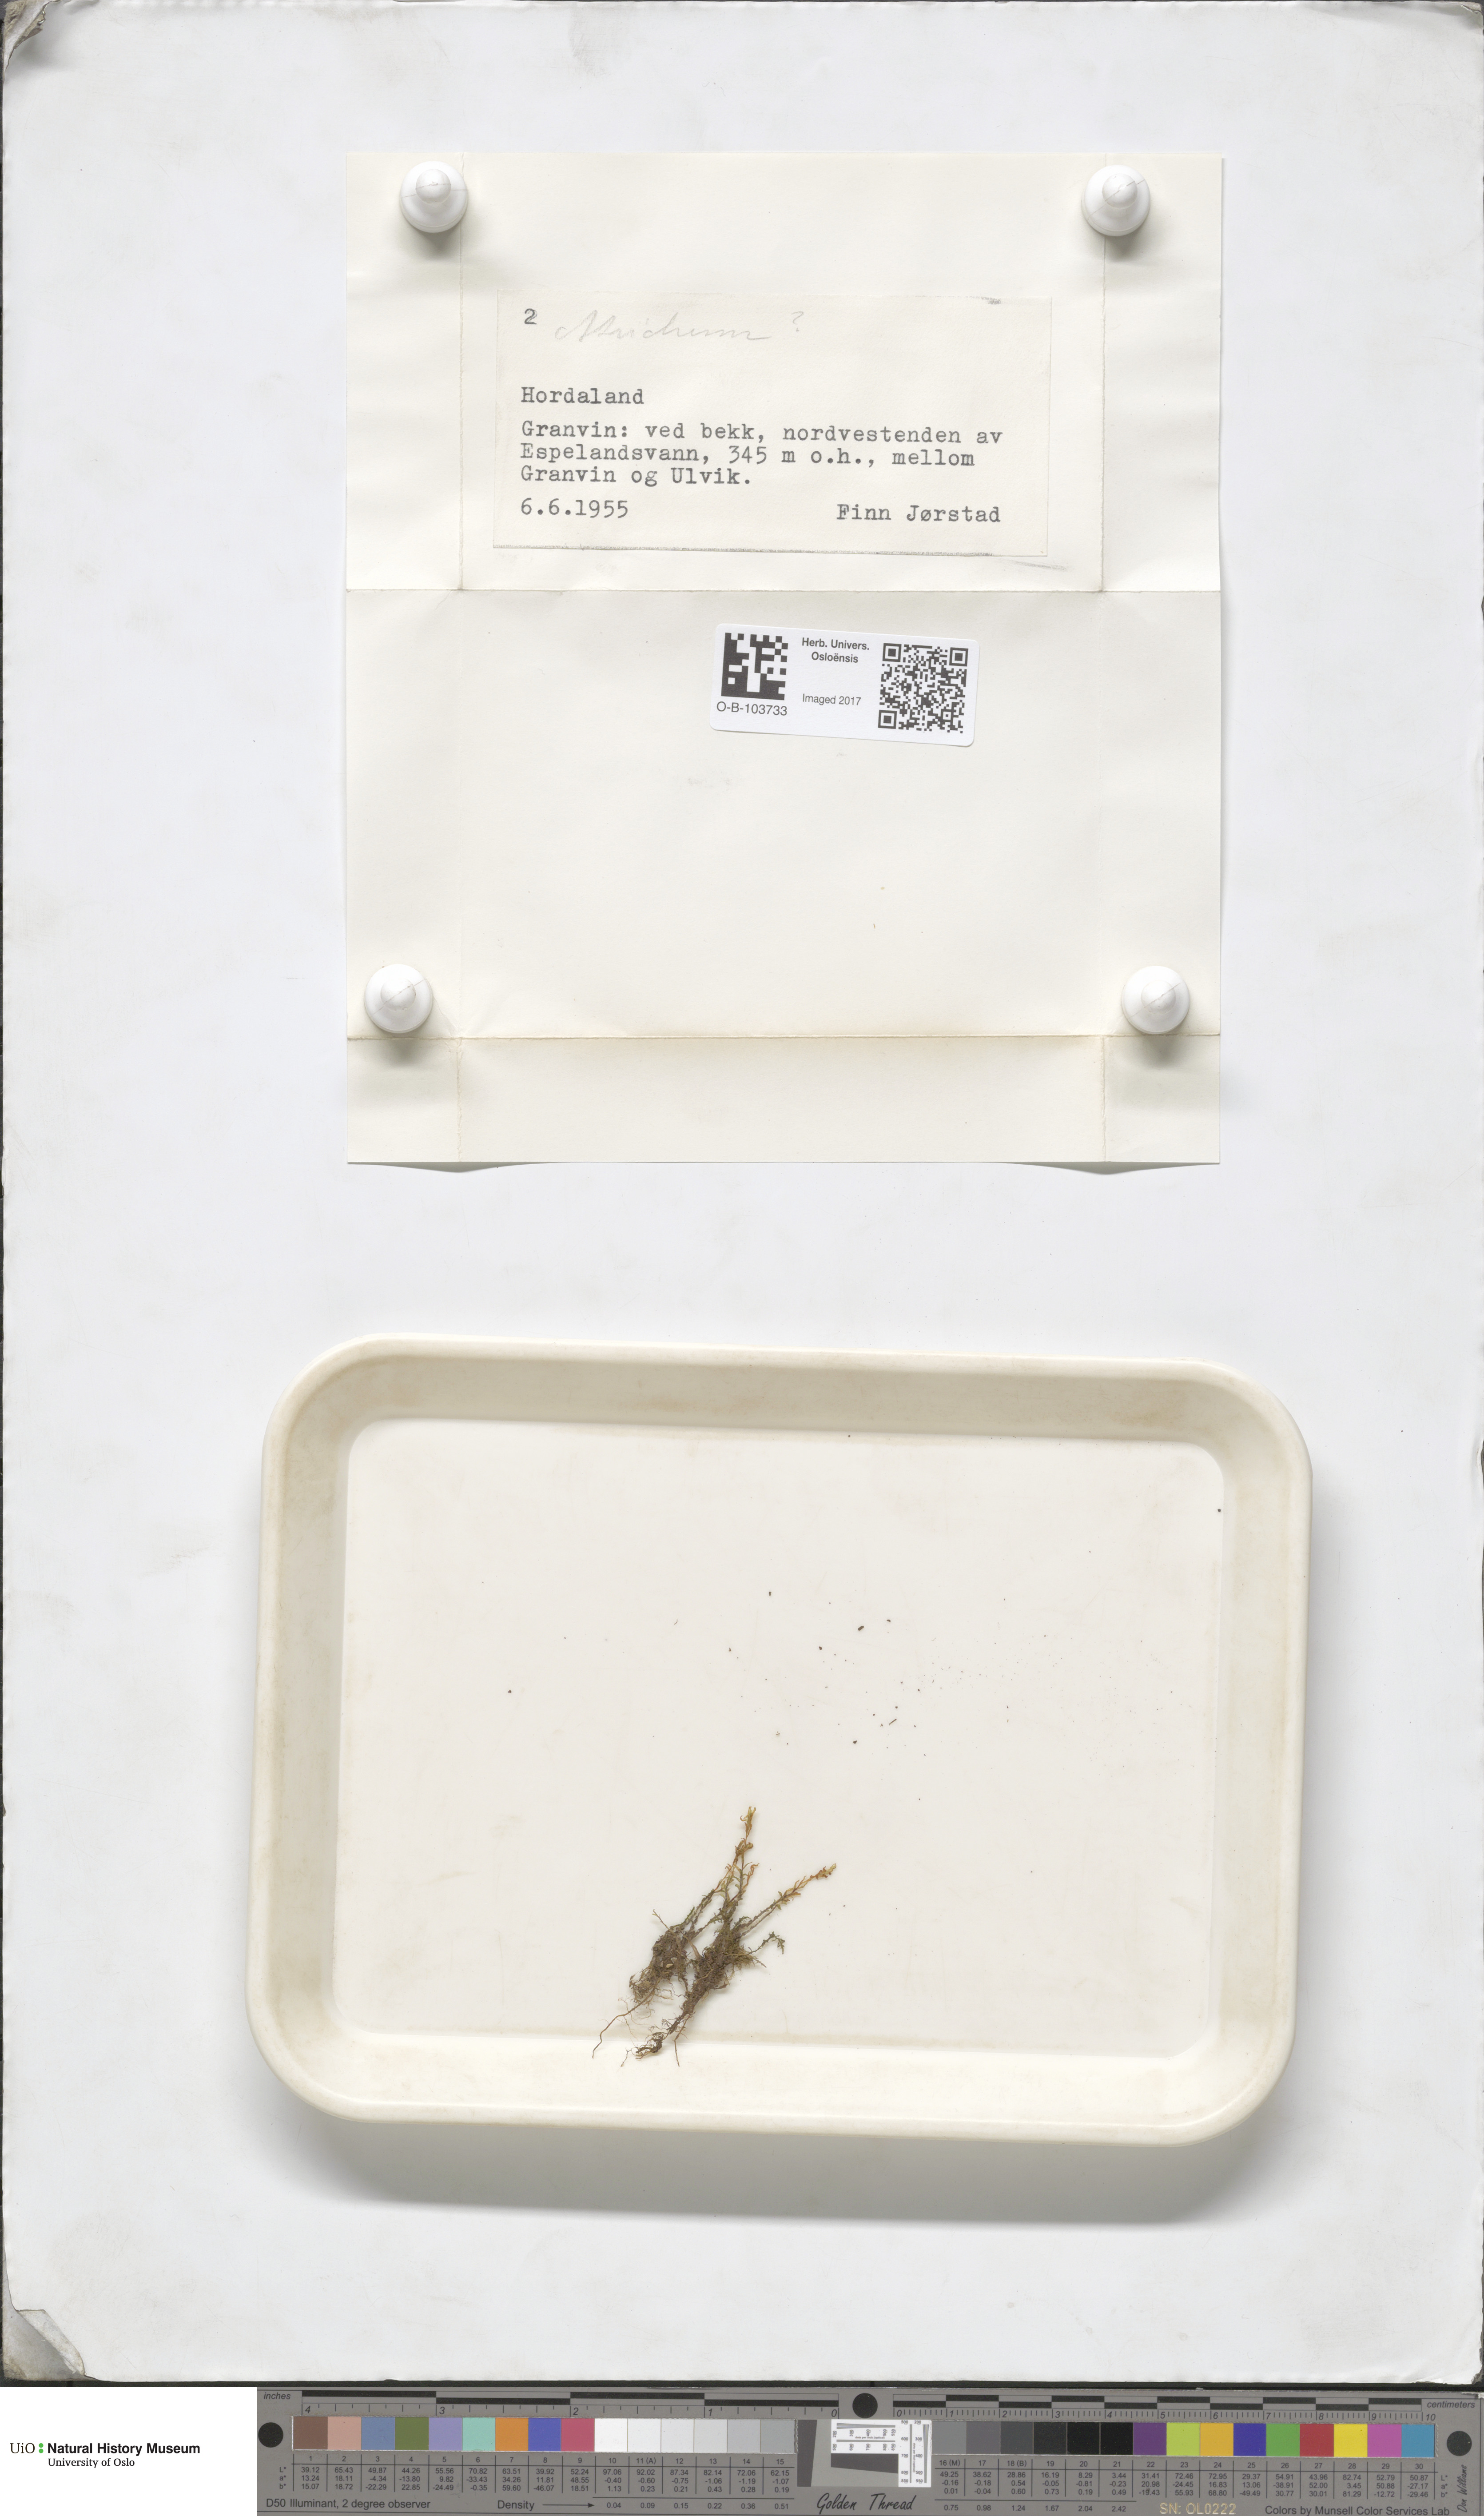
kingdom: Plantae
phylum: Bryophyta
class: Polytrichopsida
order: Polytrichales
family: Polytrichaceae
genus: Atrichum
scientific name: Atrichum
